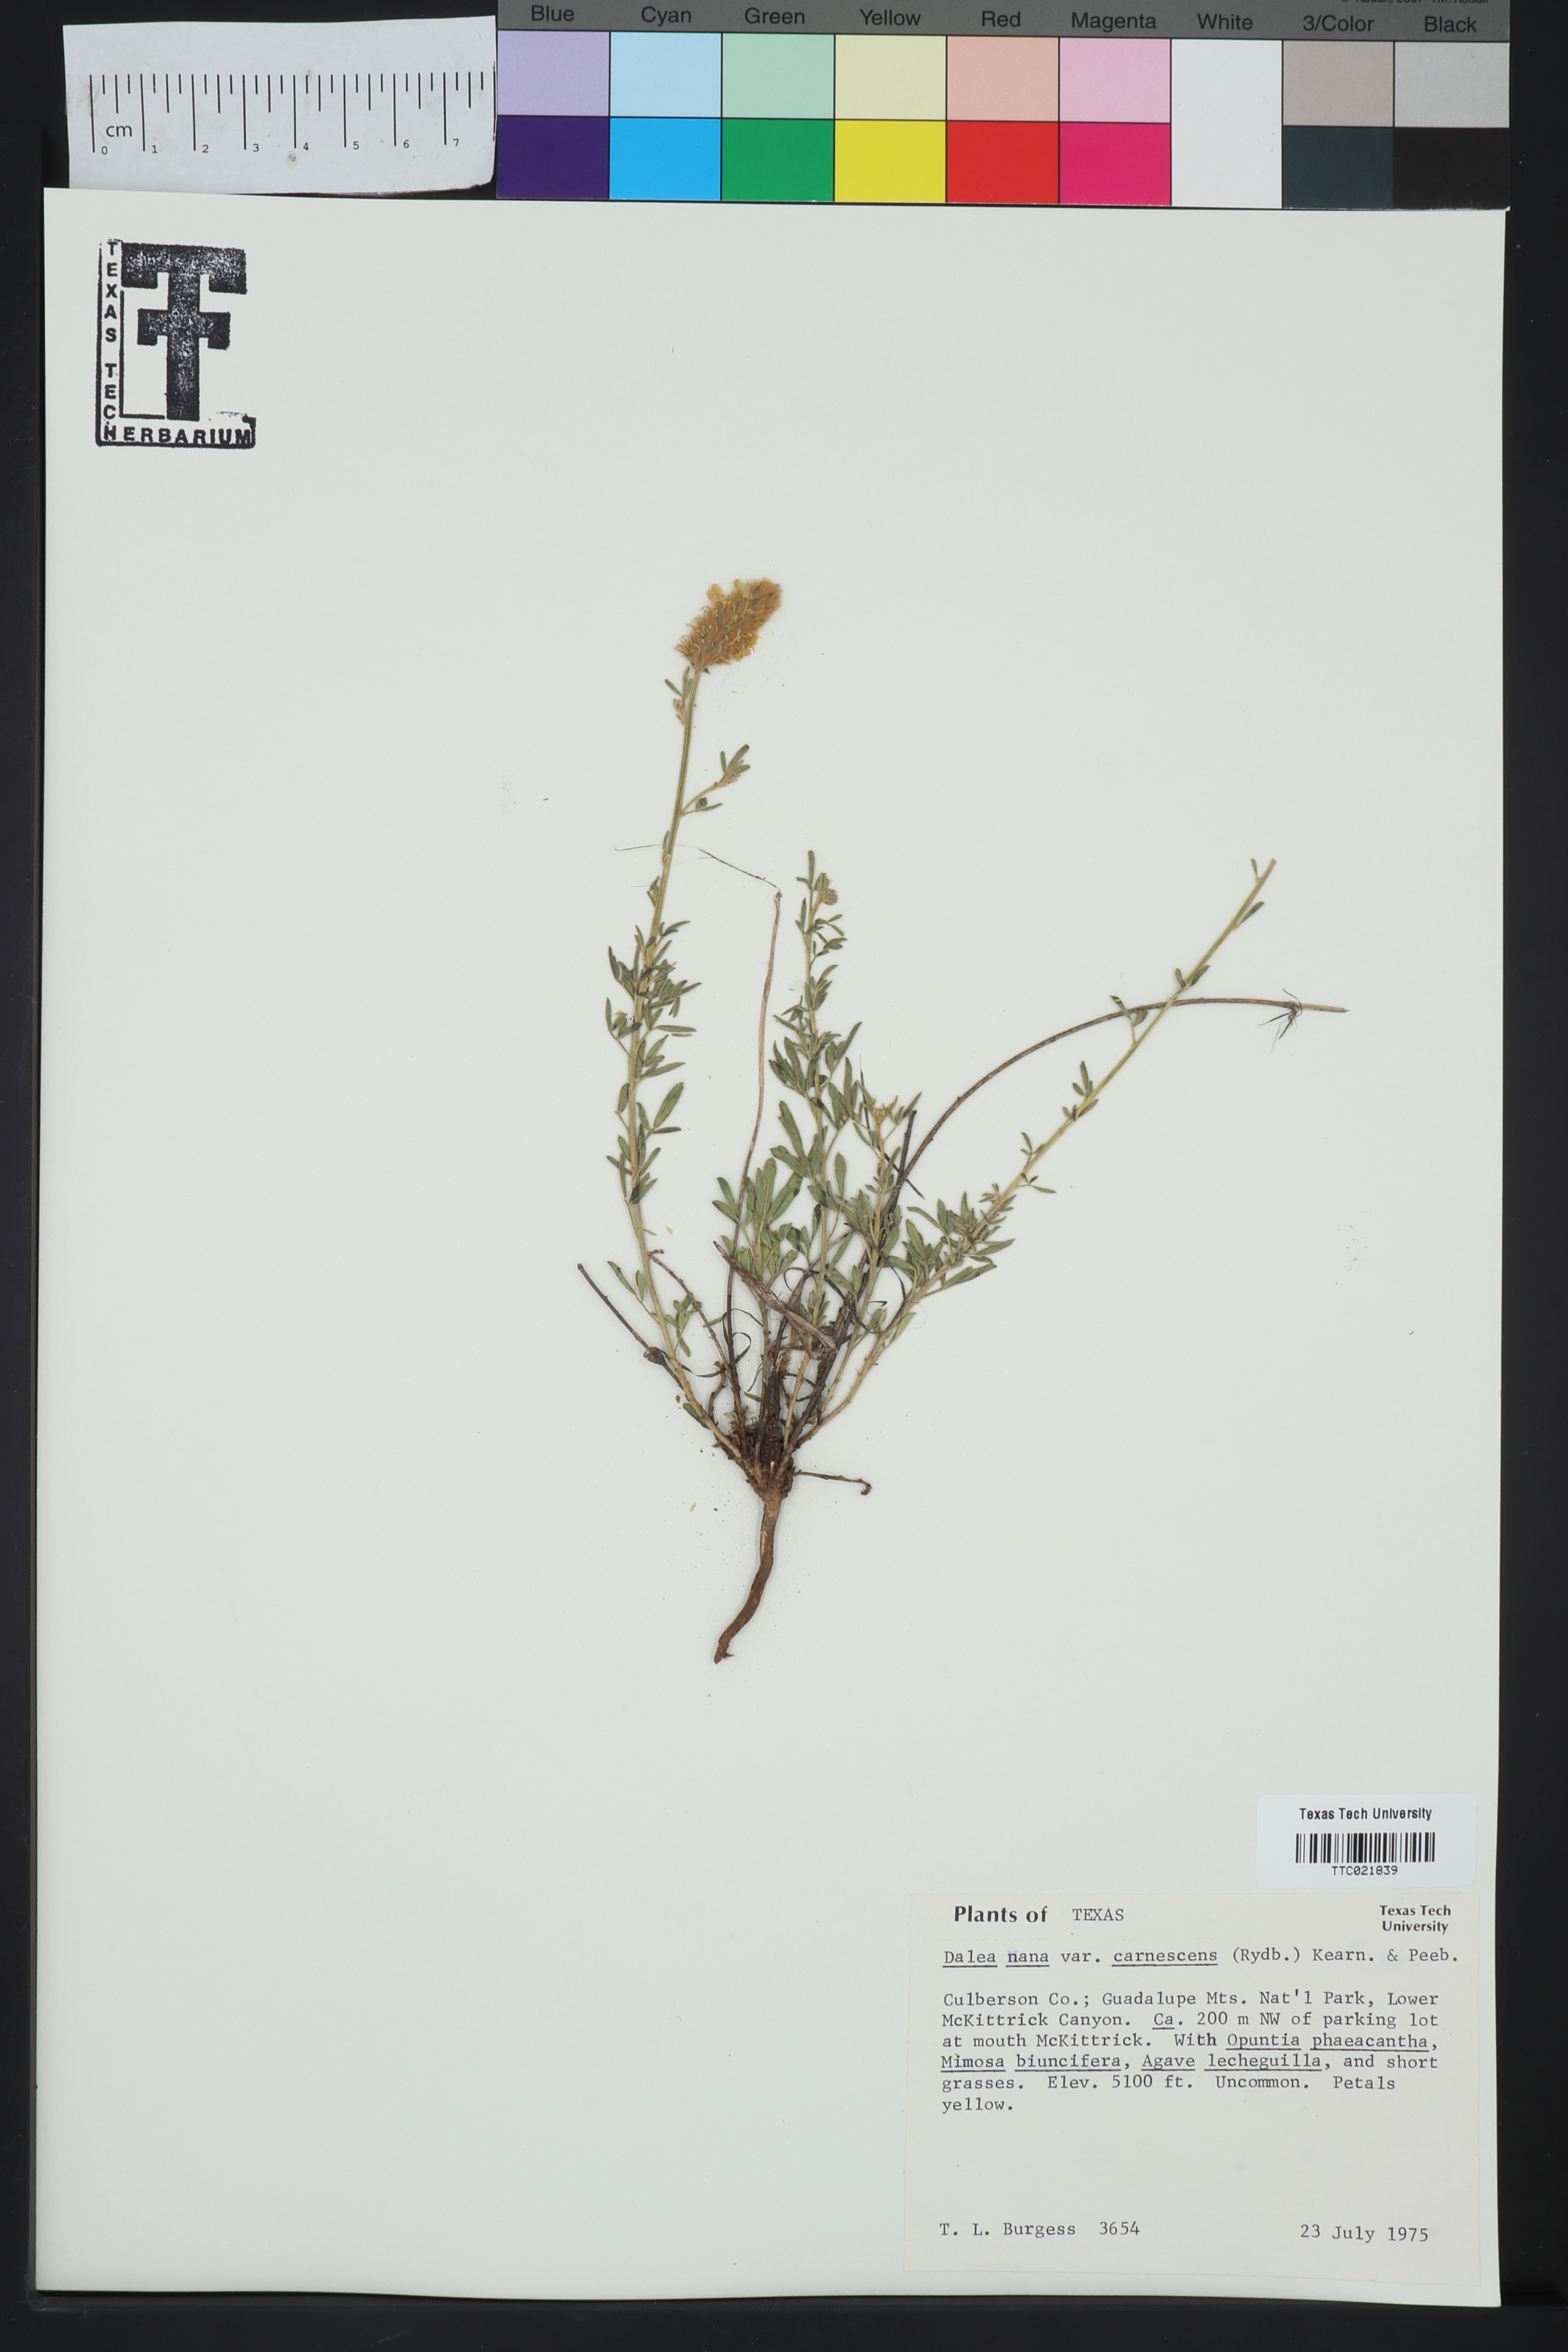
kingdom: Plantae
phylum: Tracheophyta
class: Magnoliopsida
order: Fabales
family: Fabaceae
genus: Dalea
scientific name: Dalea rubescens
